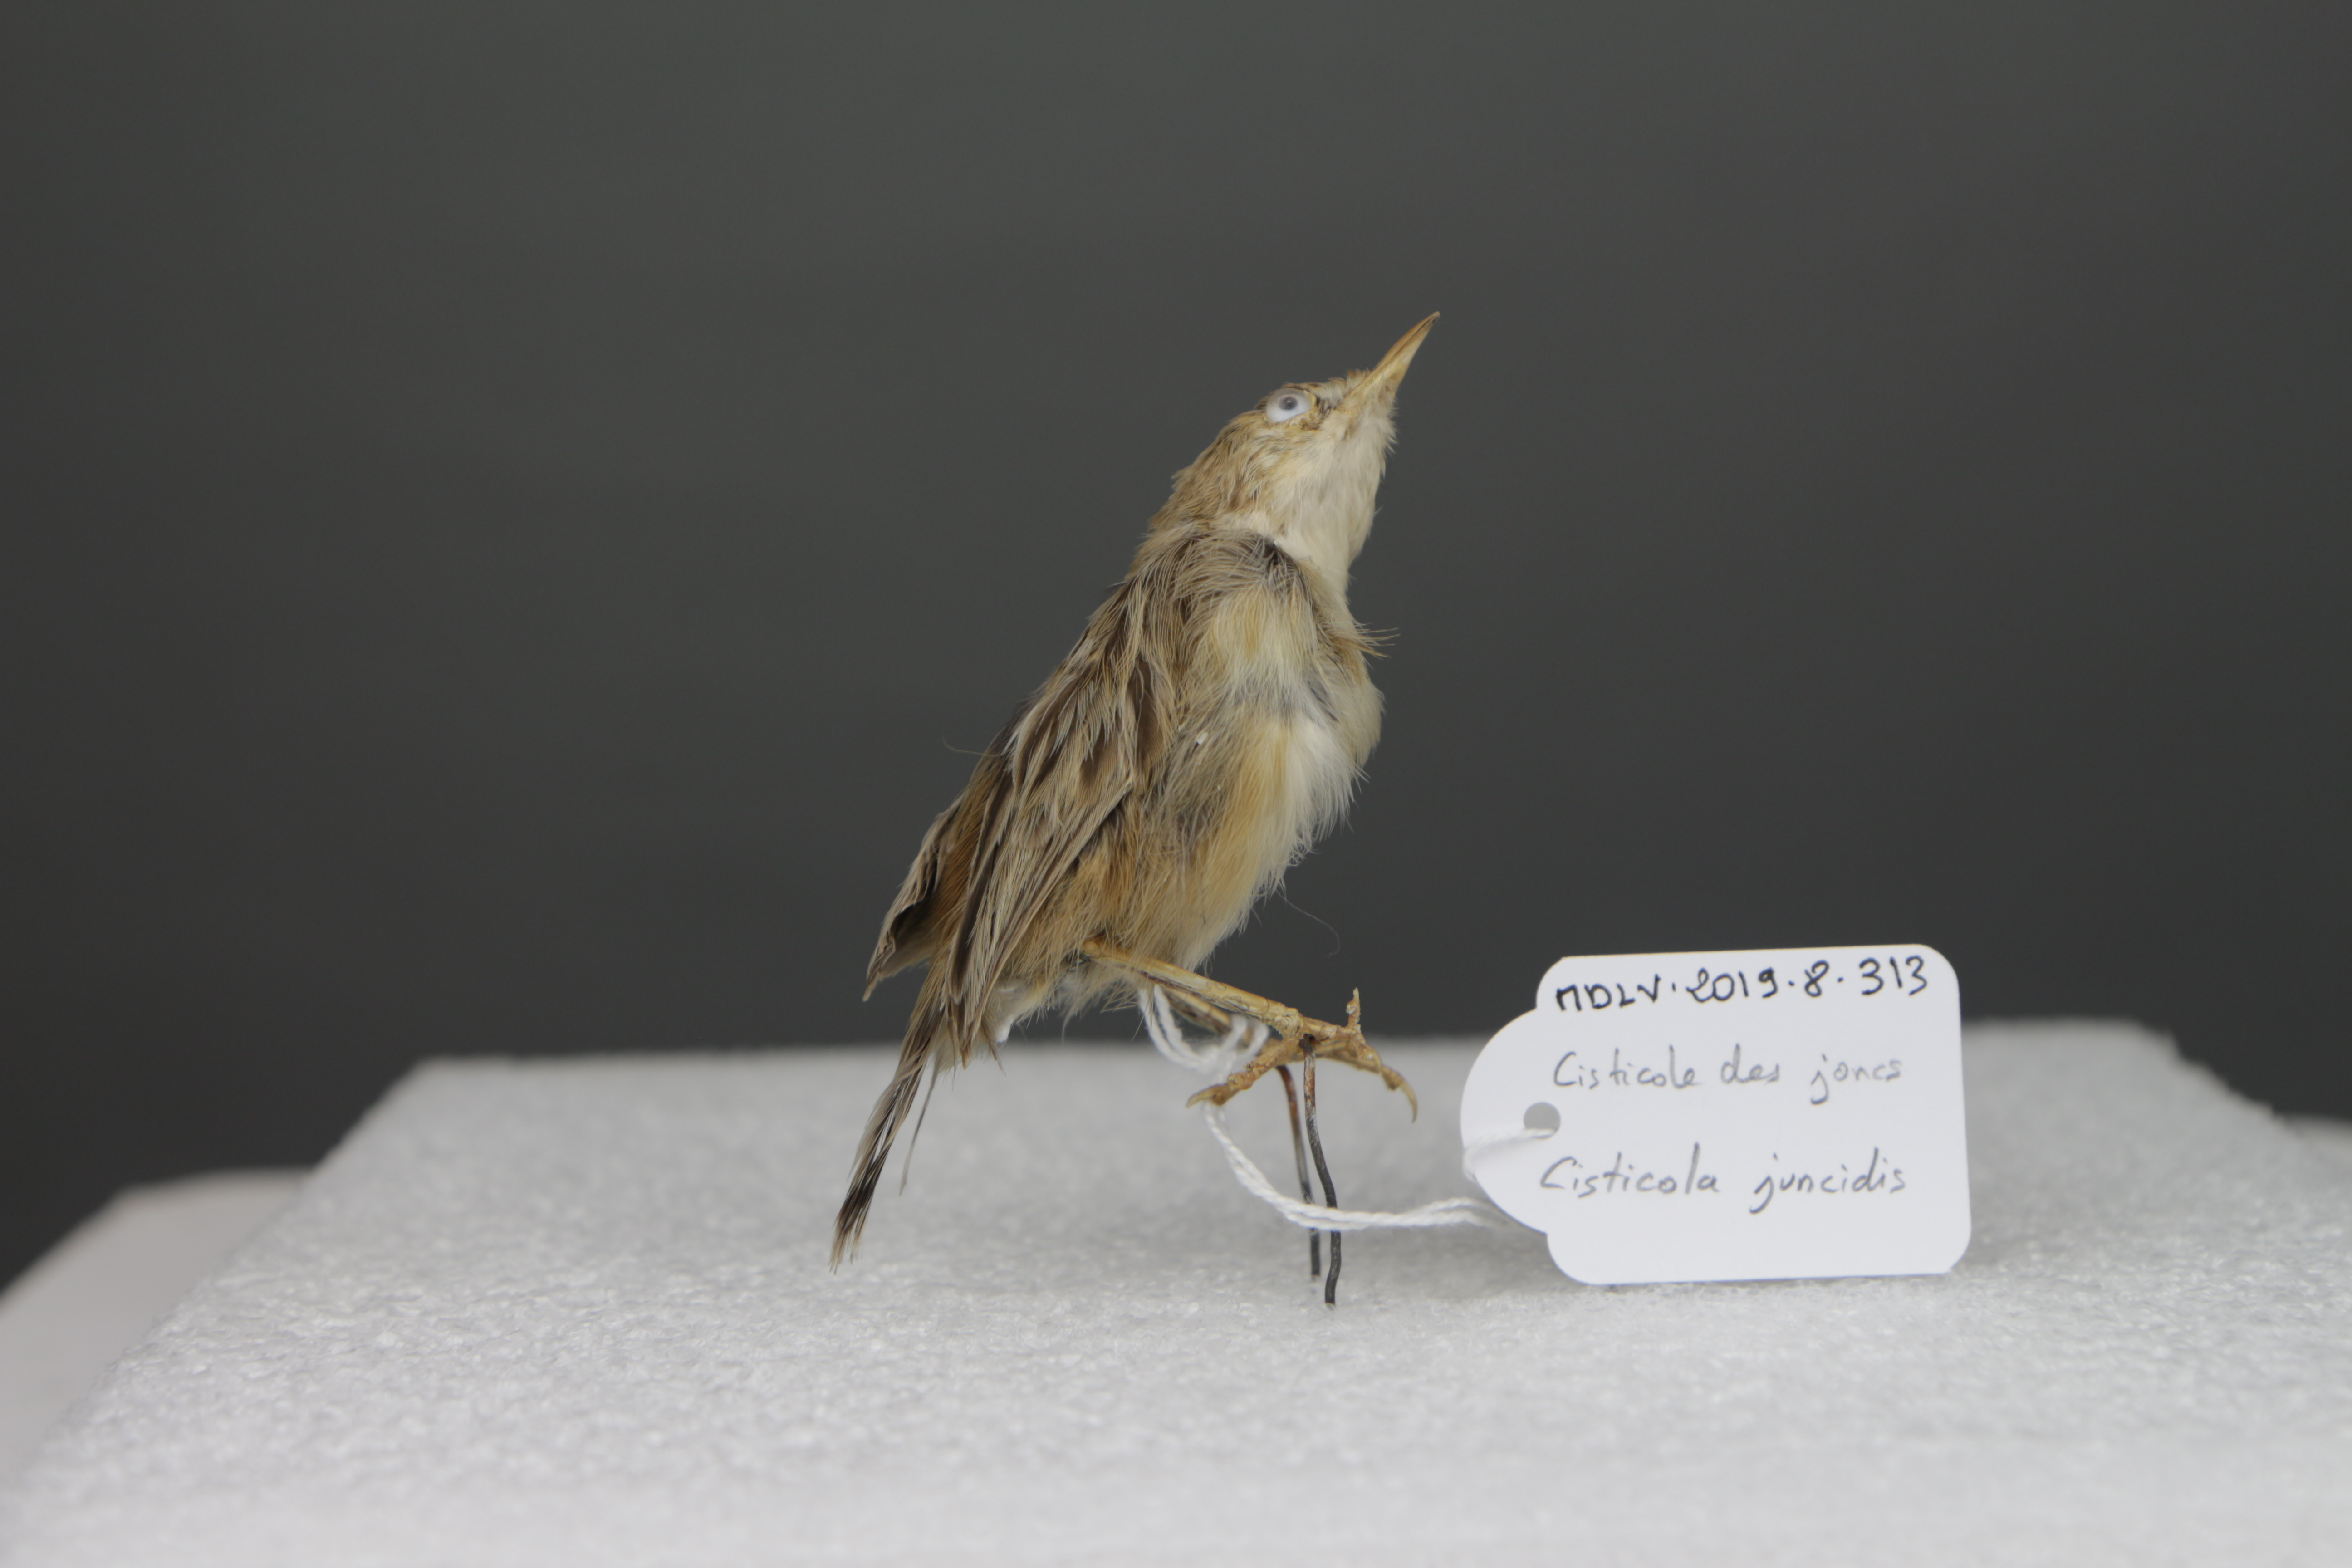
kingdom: Animalia
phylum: Chordata
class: Aves
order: Passeriformes
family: Cisticolidae
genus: Cisticola
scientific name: Cisticola juncidis
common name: Zitting cisticola
